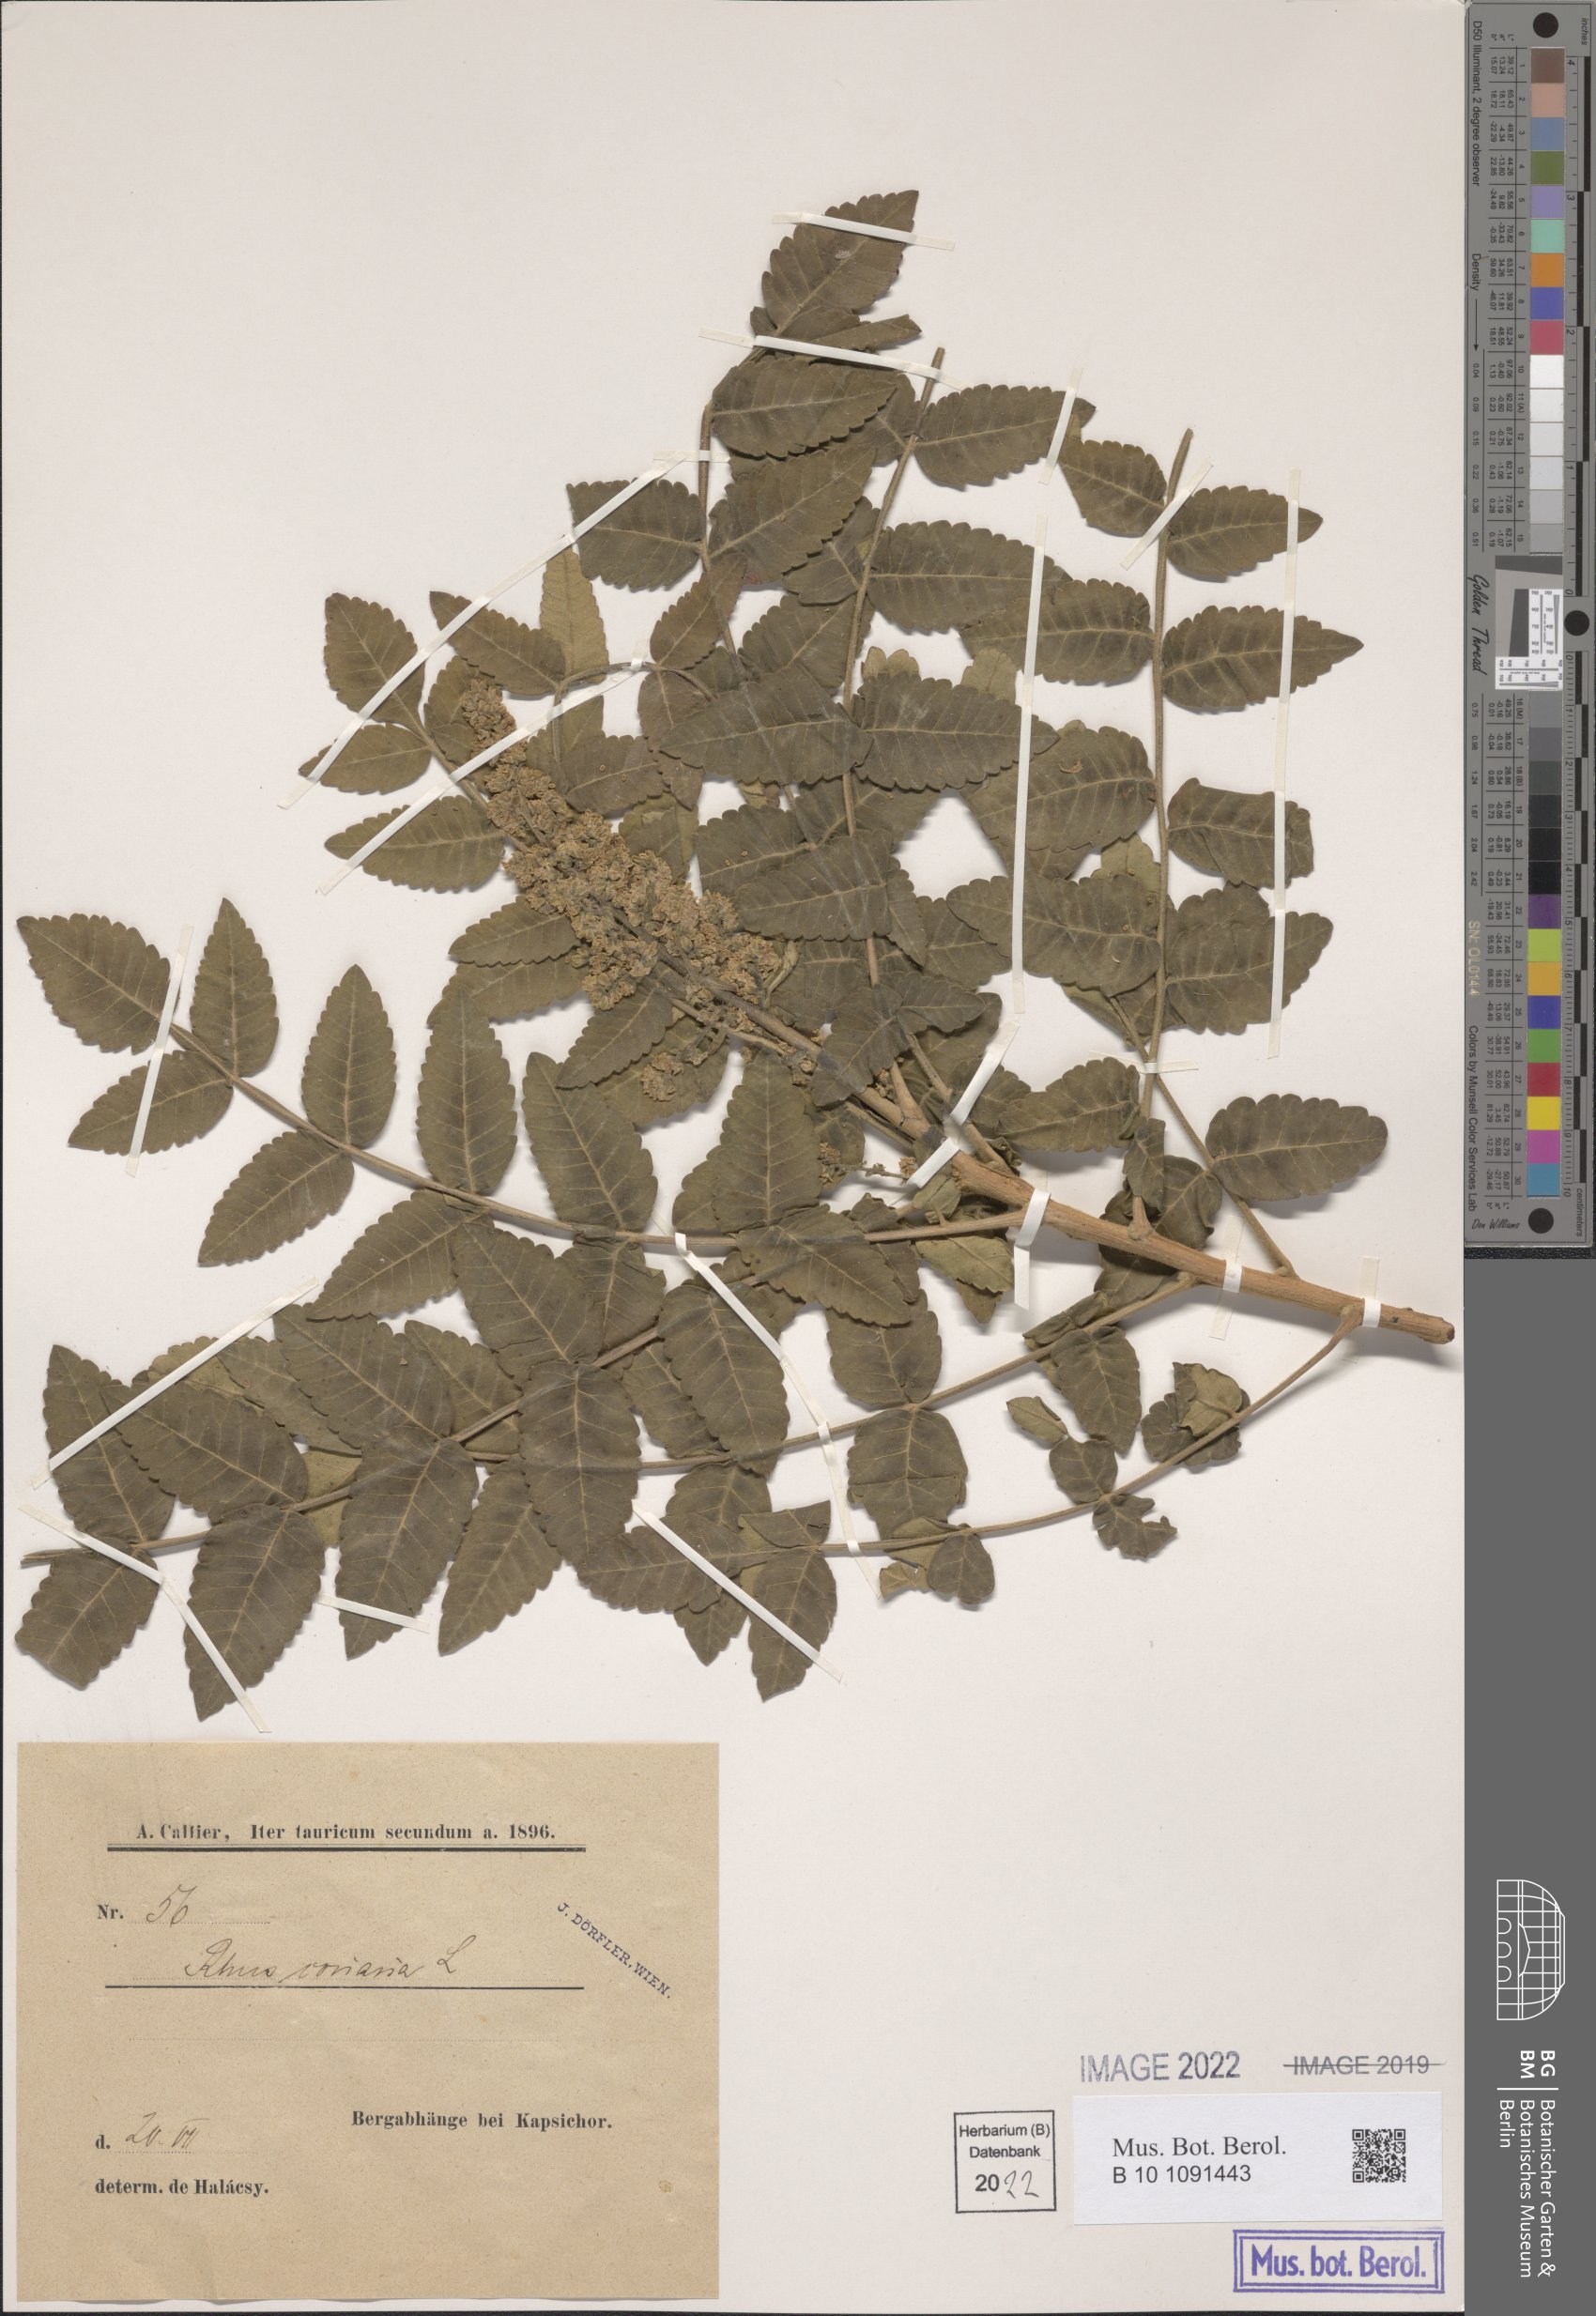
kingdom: Plantae
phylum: Tracheophyta
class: Magnoliopsida
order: Sapindales
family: Anacardiaceae
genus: Rhus
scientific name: Rhus coriaria
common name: Tanner's sumach
